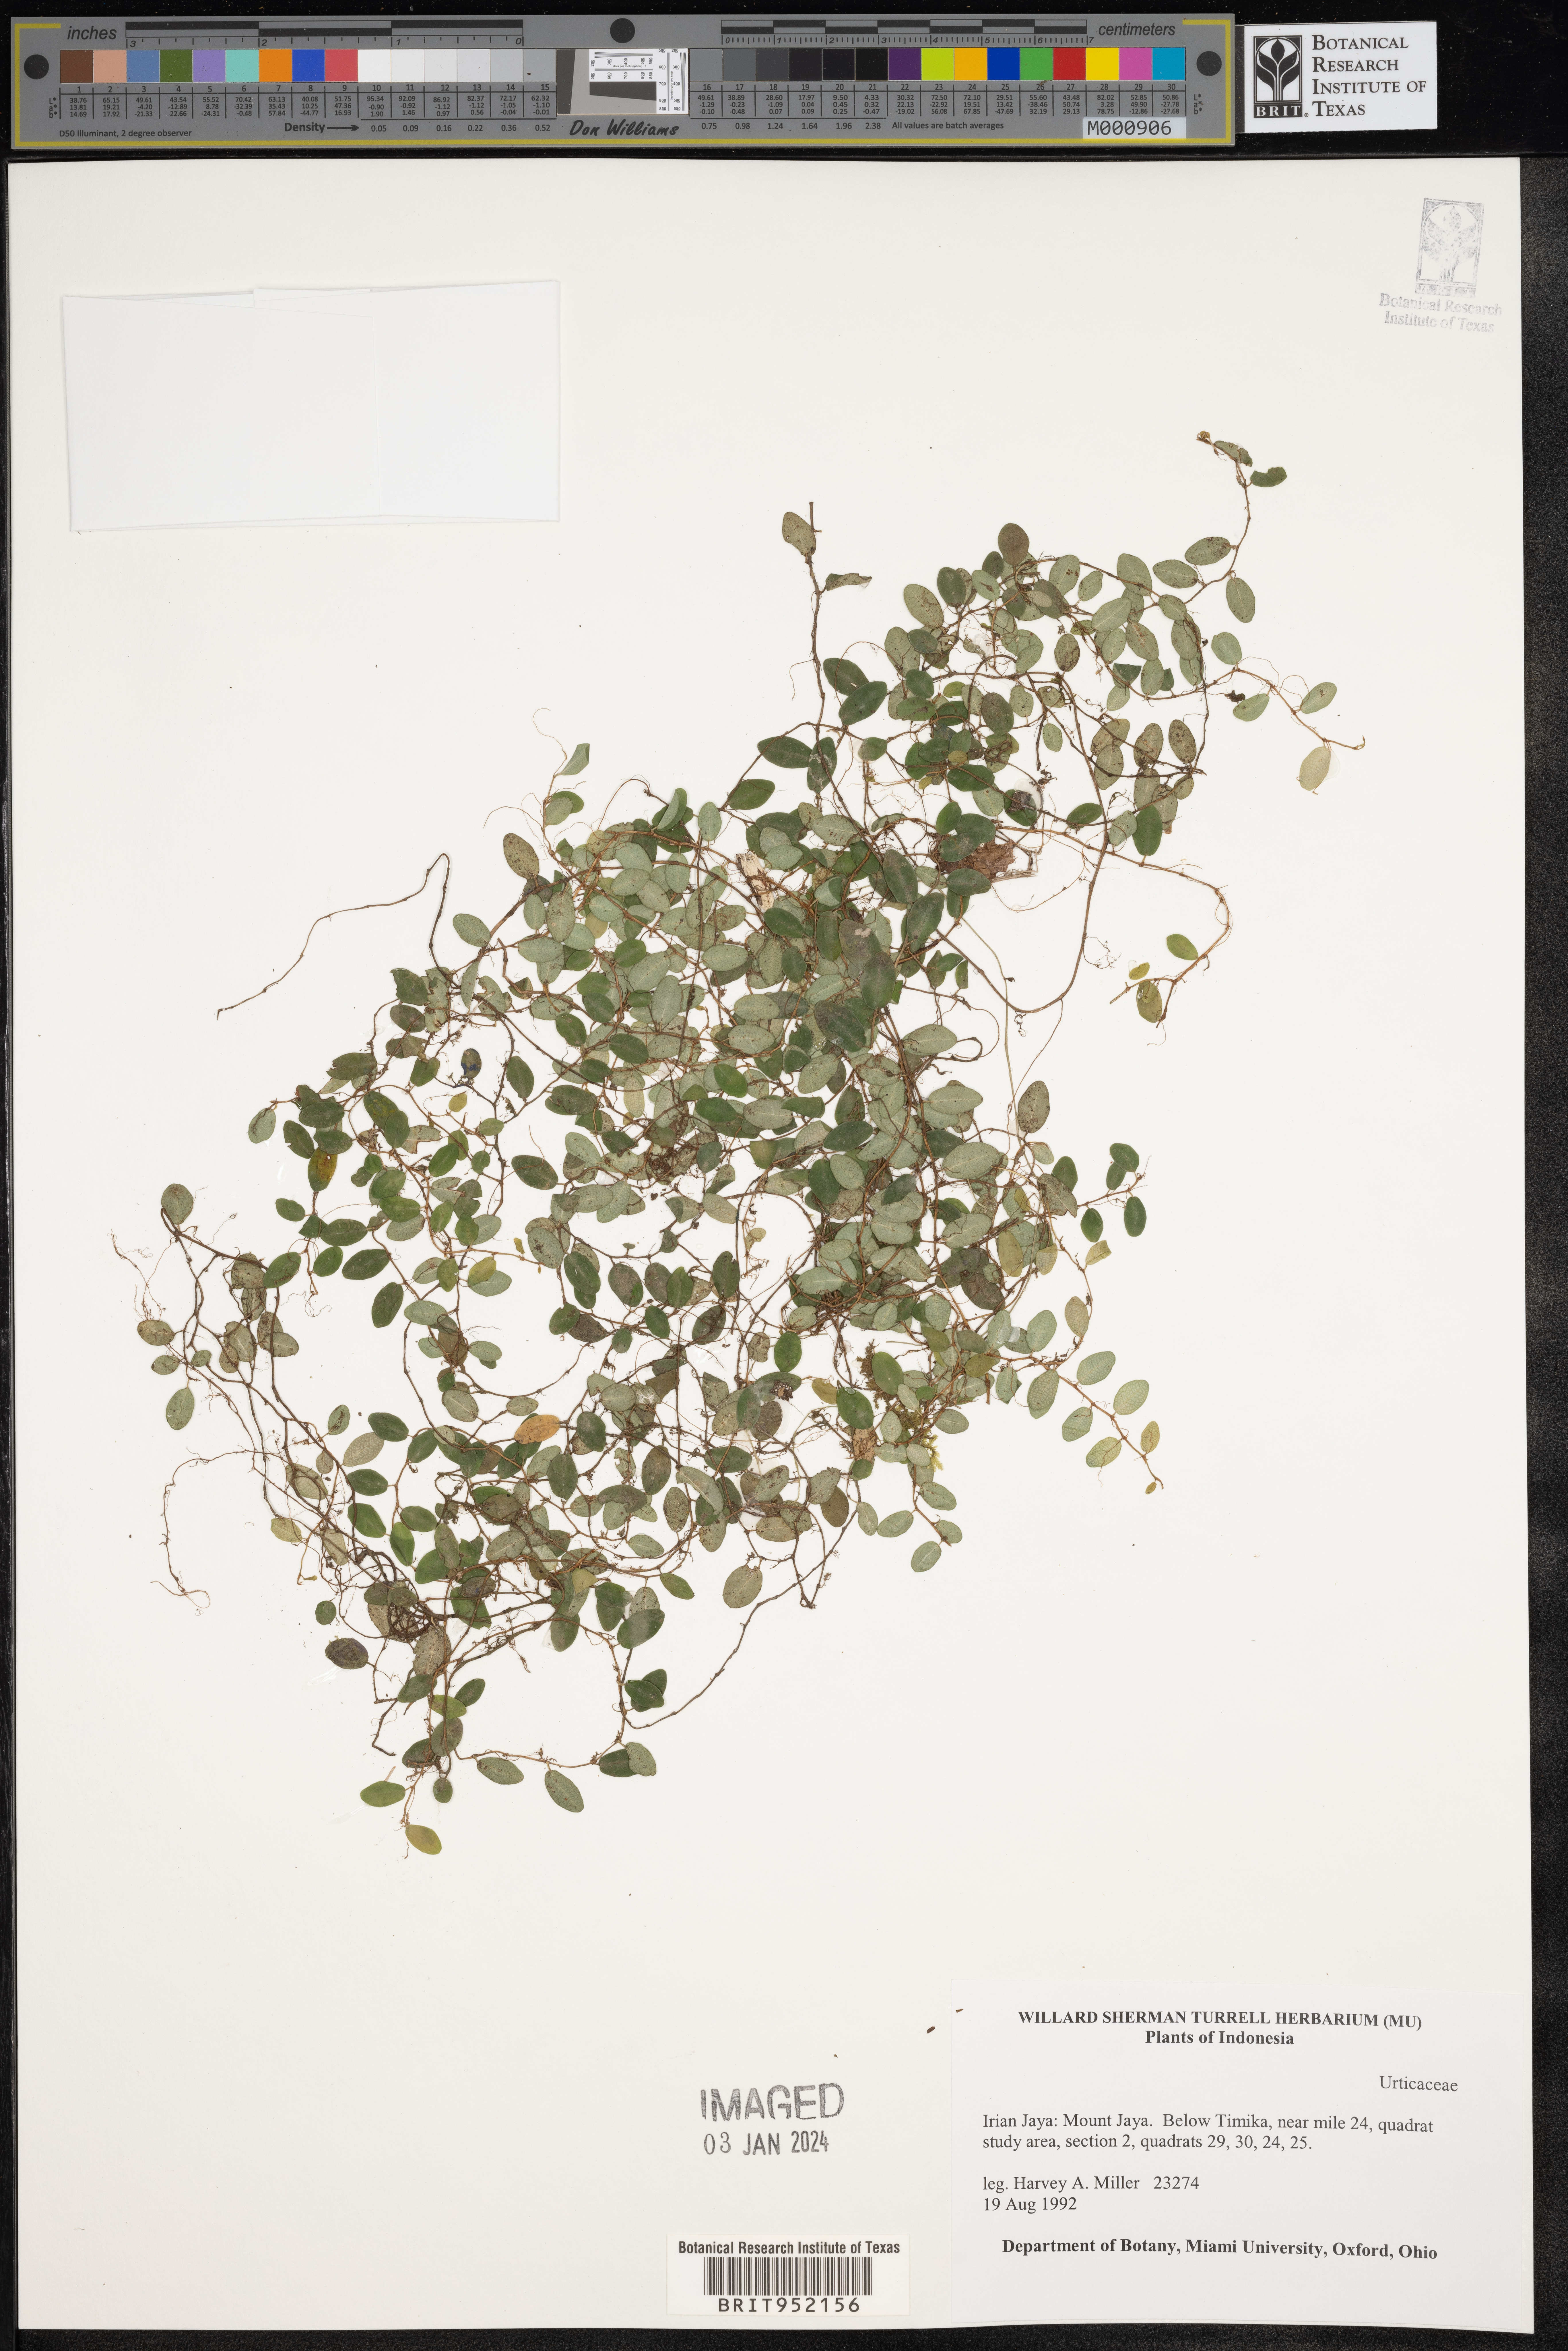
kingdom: Plantae
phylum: Tracheophyta
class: Magnoliopsida
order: Rosales
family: Urticaceae
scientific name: Urticaceae
